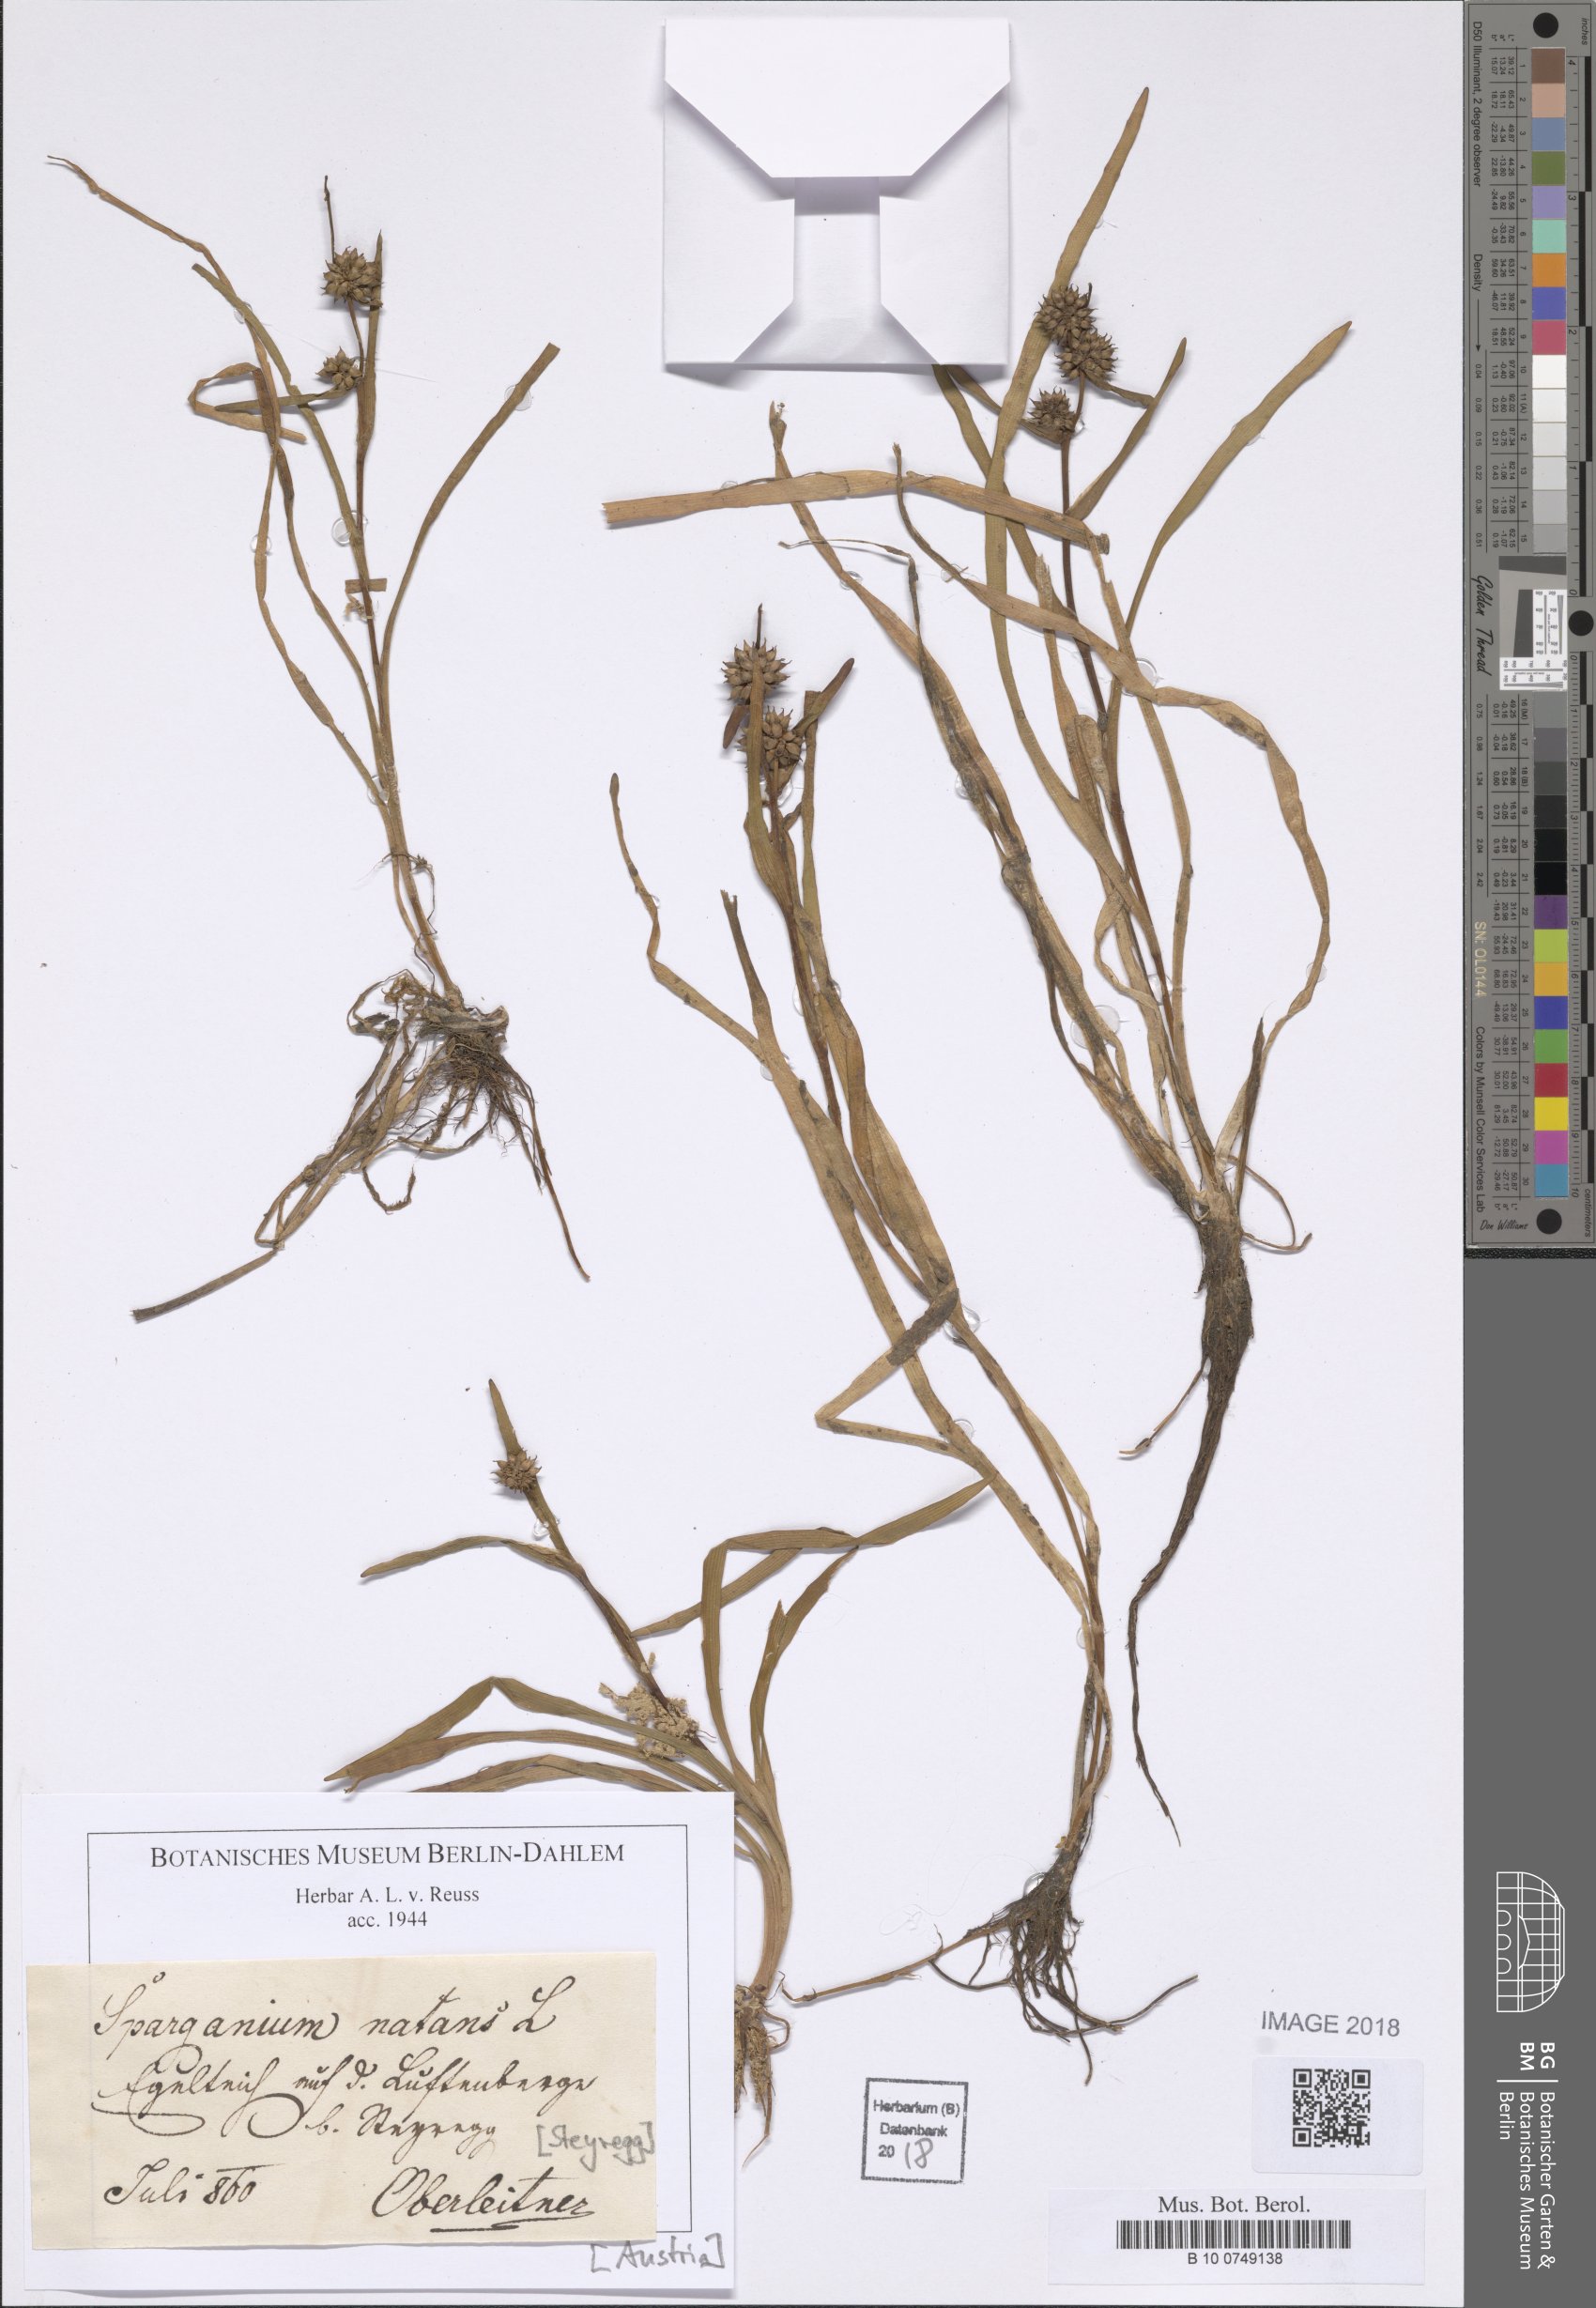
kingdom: Plantae
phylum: Tracheophyta
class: Liliopsida
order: Poales
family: Typhaceae
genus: Sparganium
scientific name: Sparganium natans
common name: Least bur-reed
